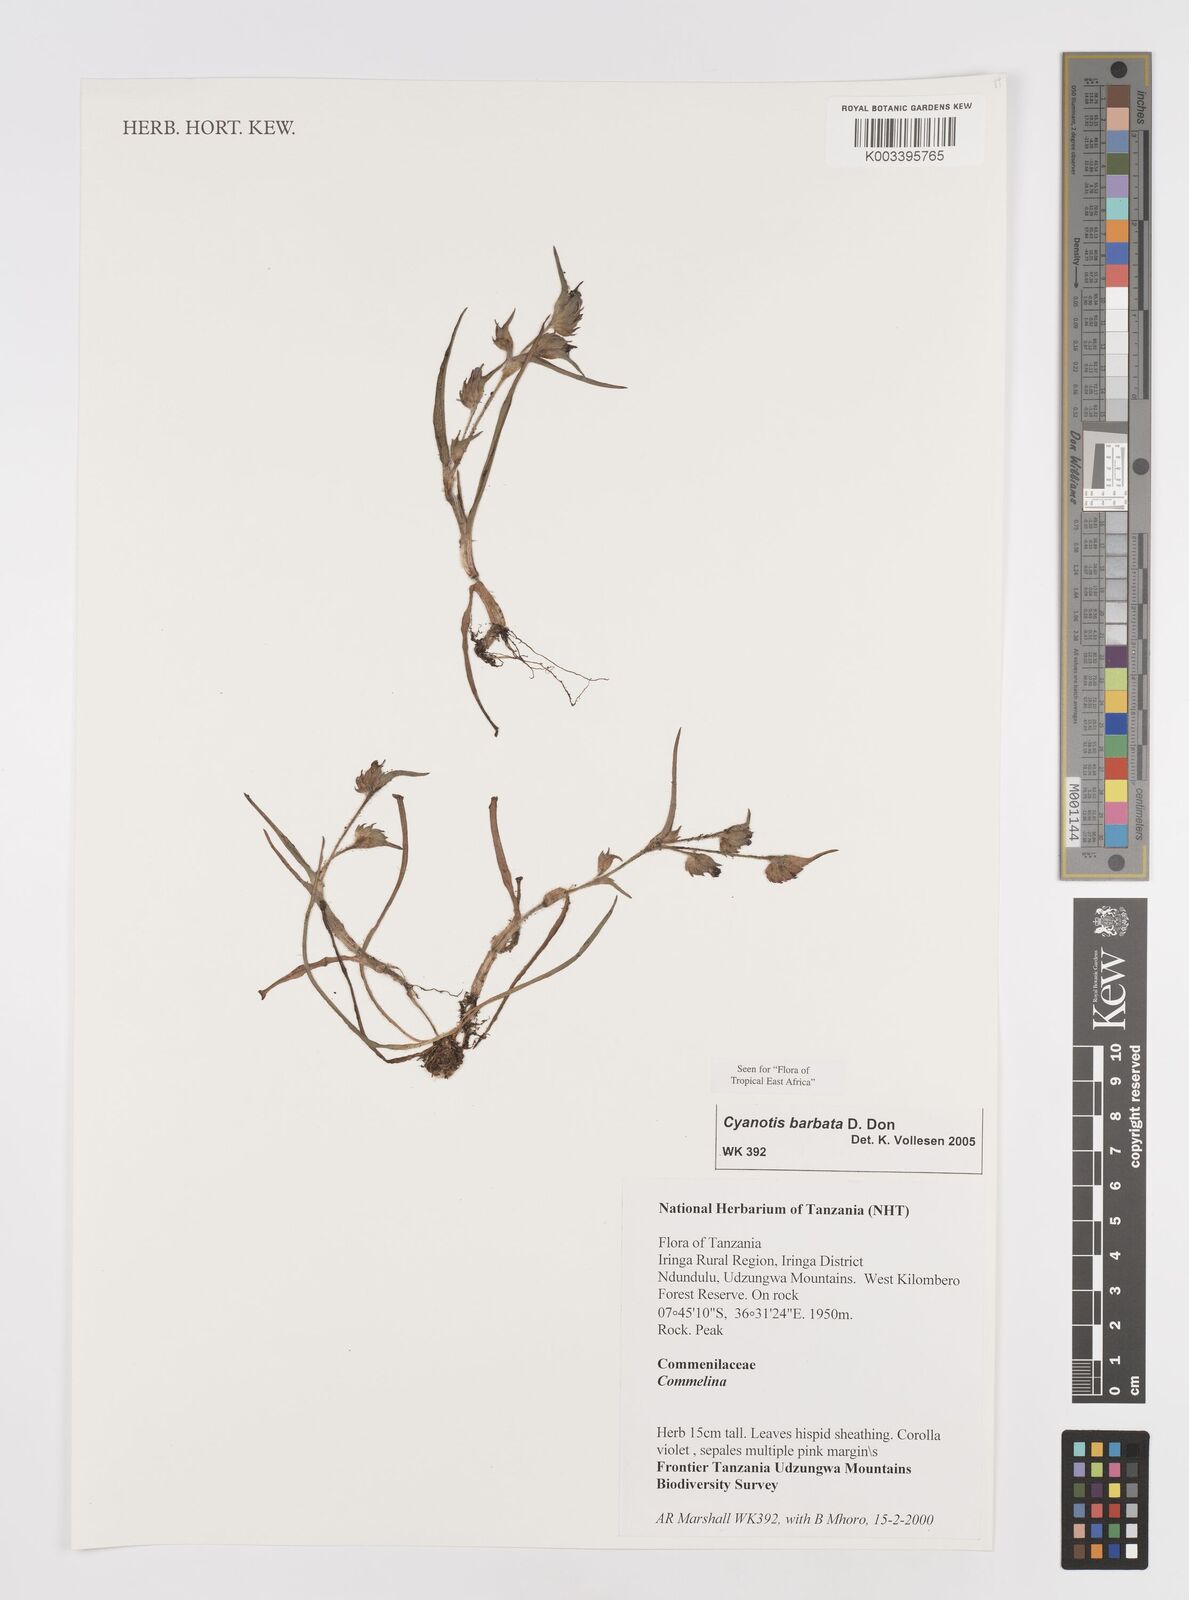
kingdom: Plantae
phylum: Tracheophyta
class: Liliopsida
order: Commelinales
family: Commelinaceae
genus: Cyanotis
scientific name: Cyanotis vaga
